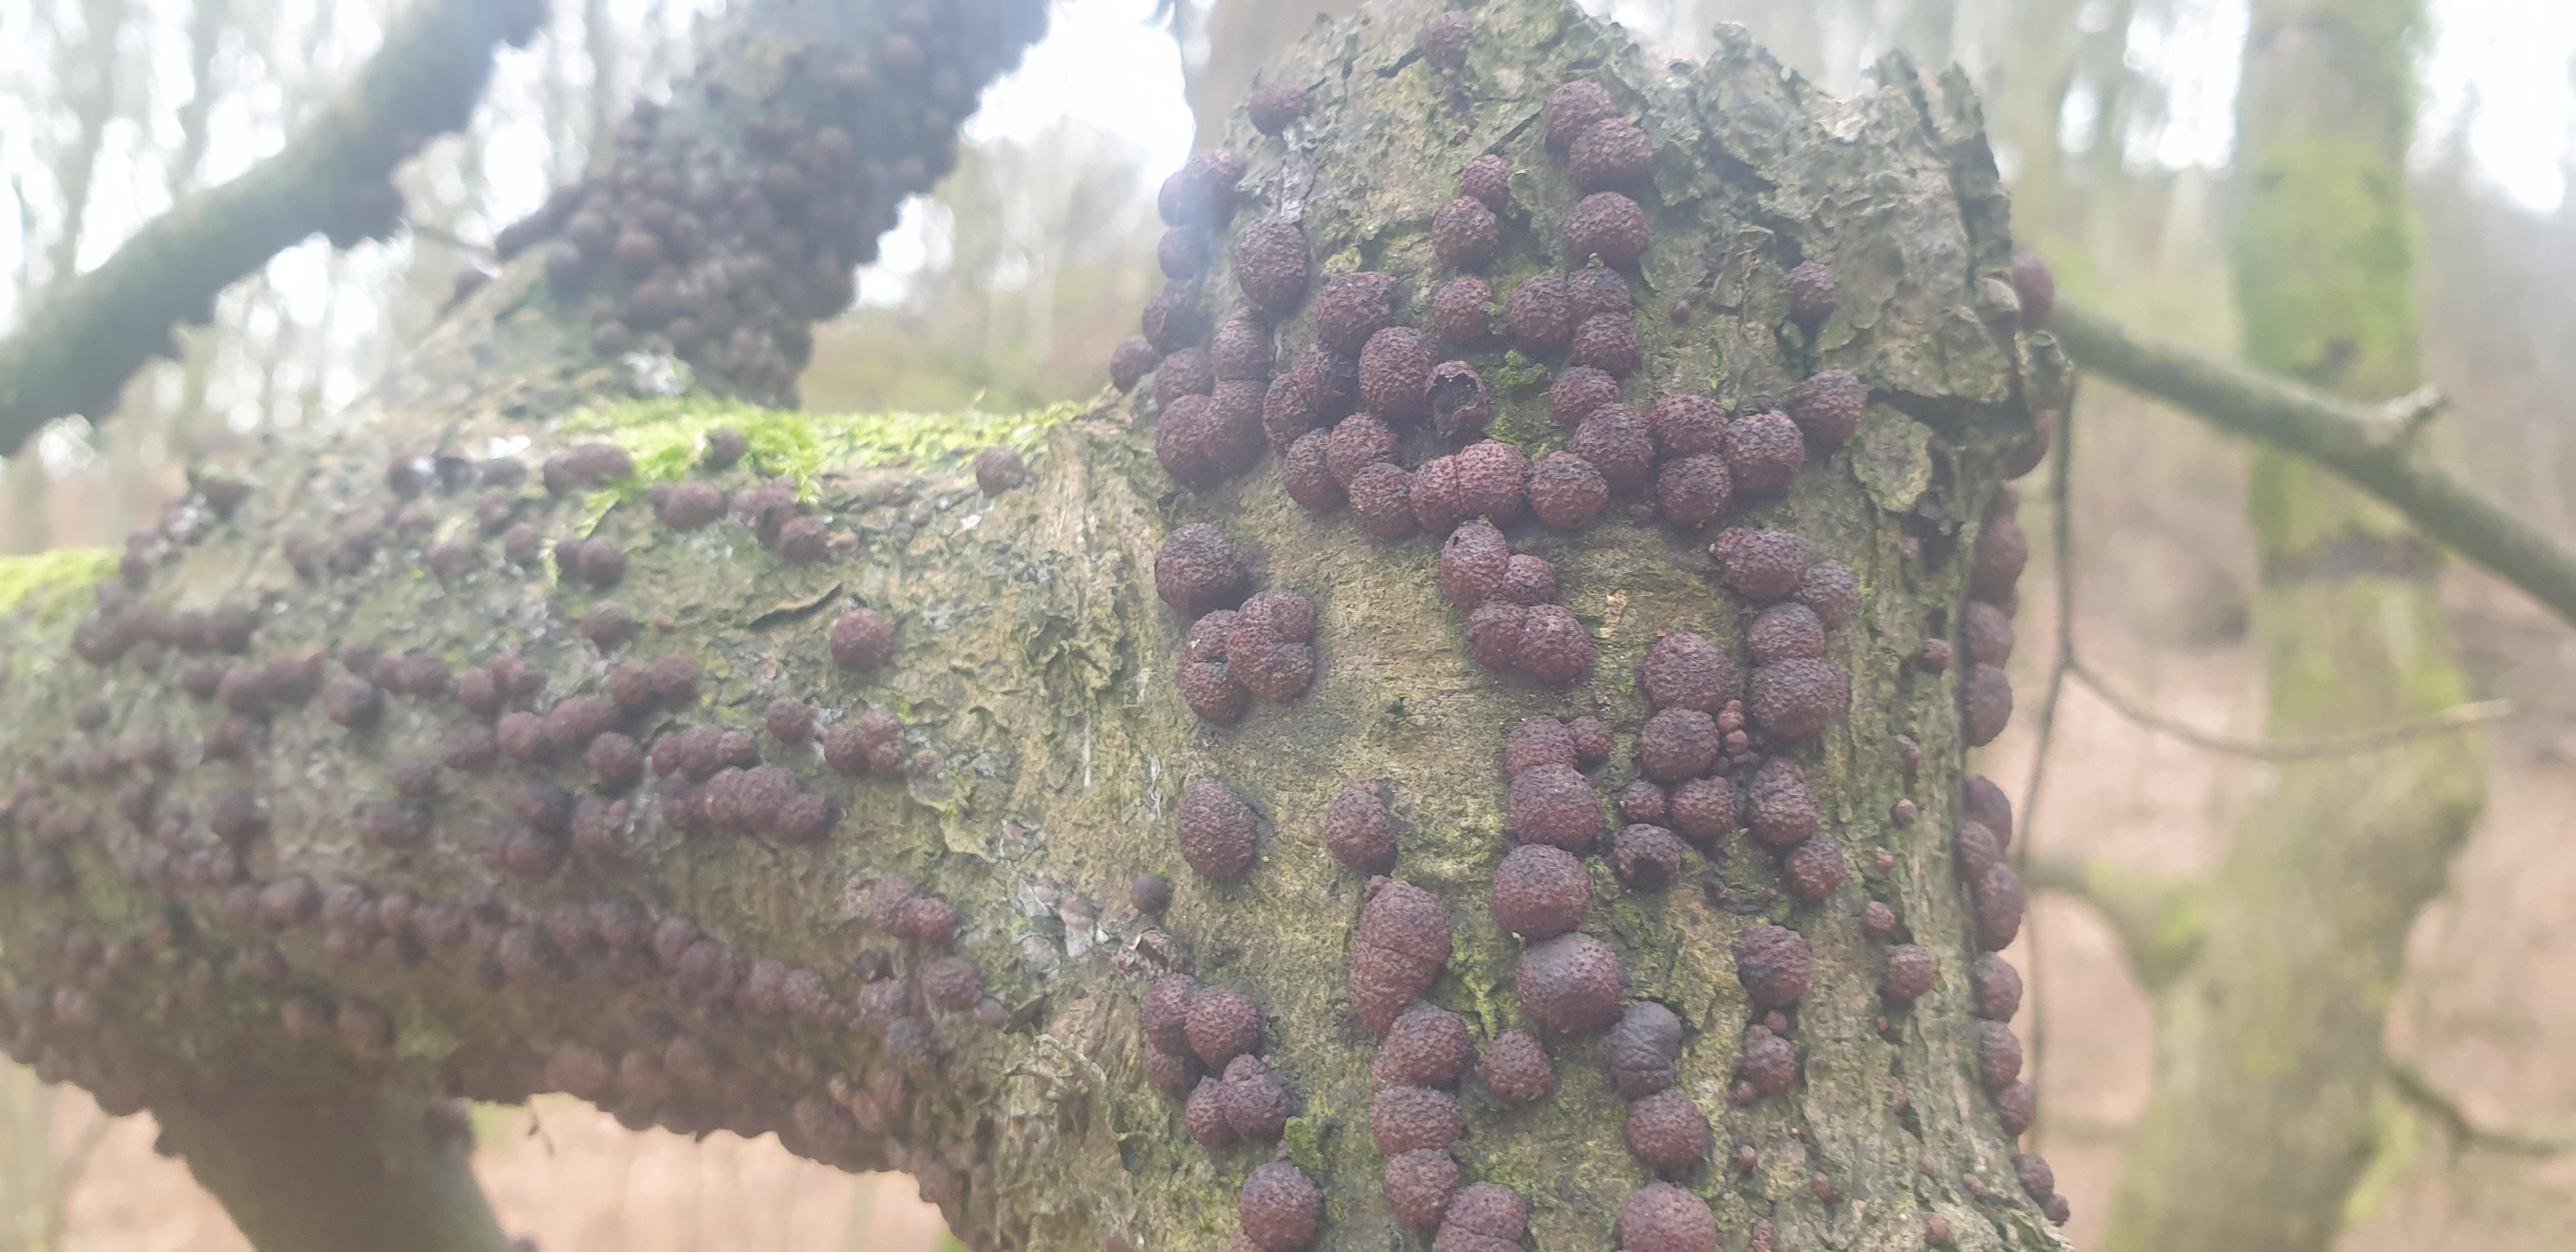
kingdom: Fungi
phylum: Ascomycota
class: Sordariomycetes
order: Xylariales
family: Hypoxylaceae
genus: Hypoxylon
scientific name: Hypoxylon fragiforme
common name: kuljordbær
